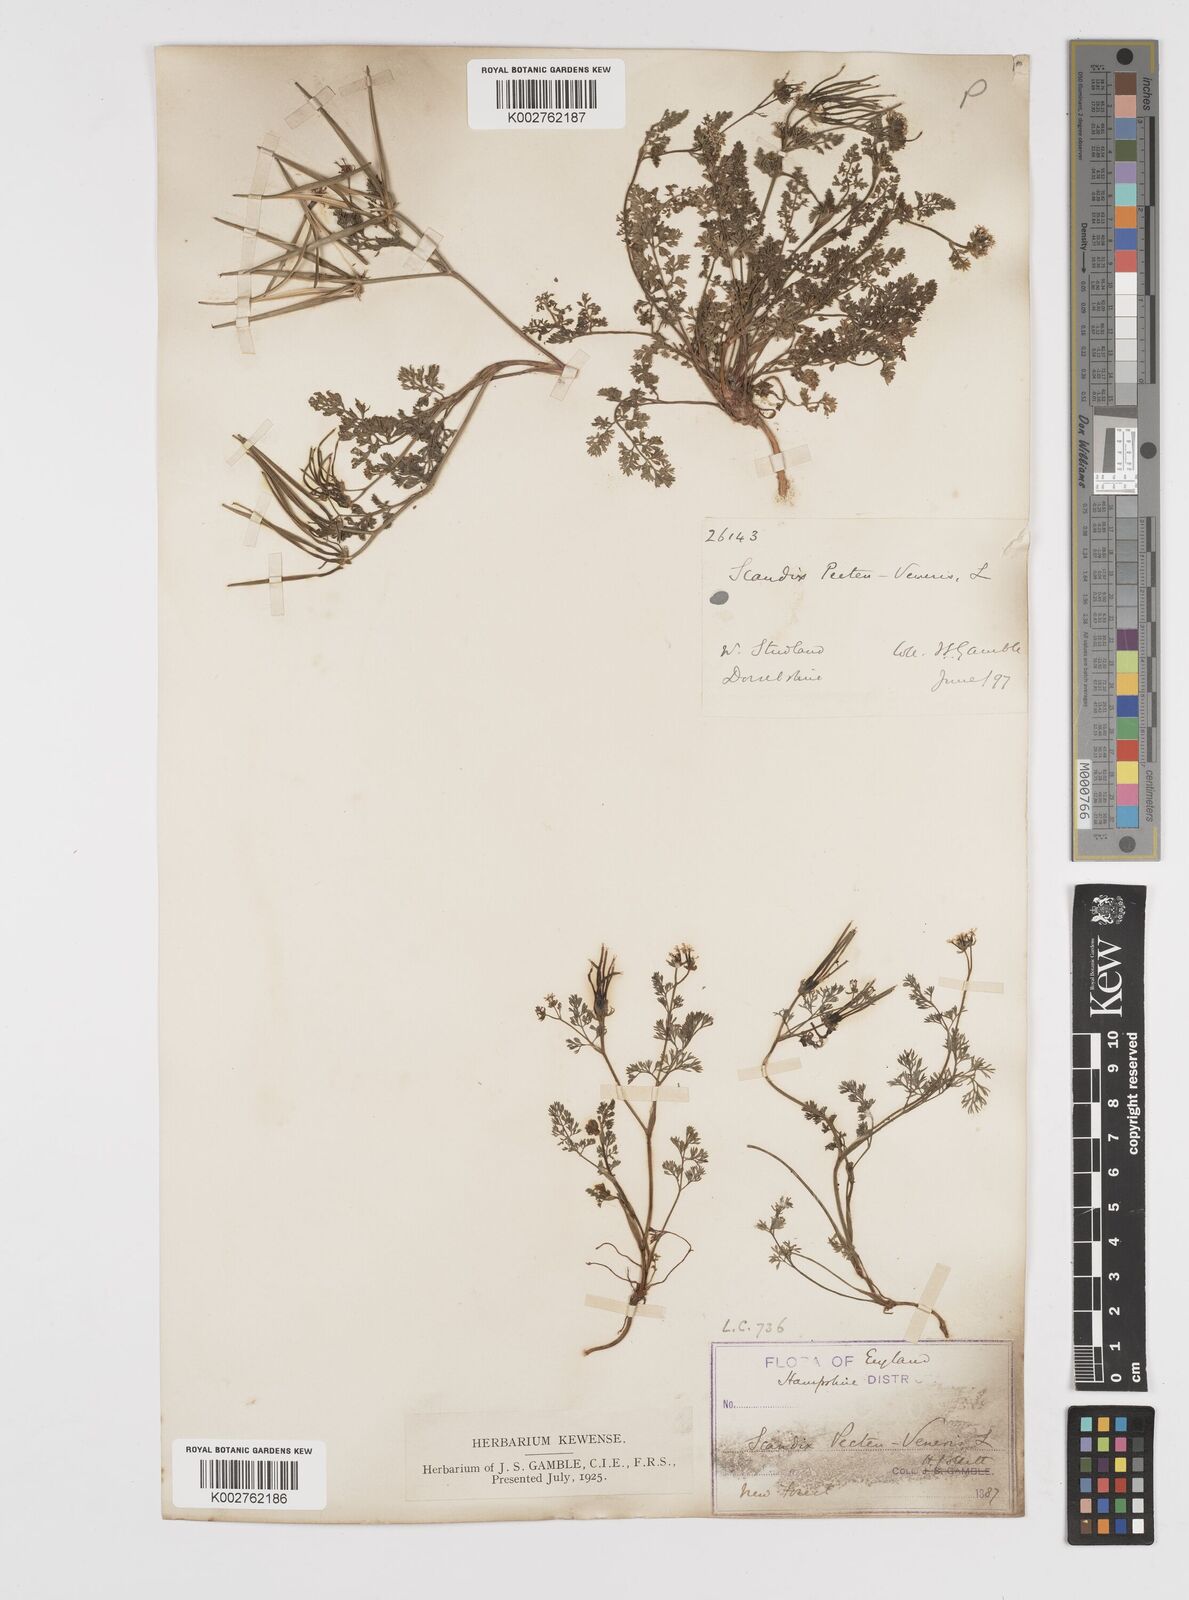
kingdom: Plantae
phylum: Tracheophyta
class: Magnoliopsida
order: Apiales
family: Apiaceae
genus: Scandix
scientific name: Scandix pecten-veneris
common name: Shepherd's-needle
